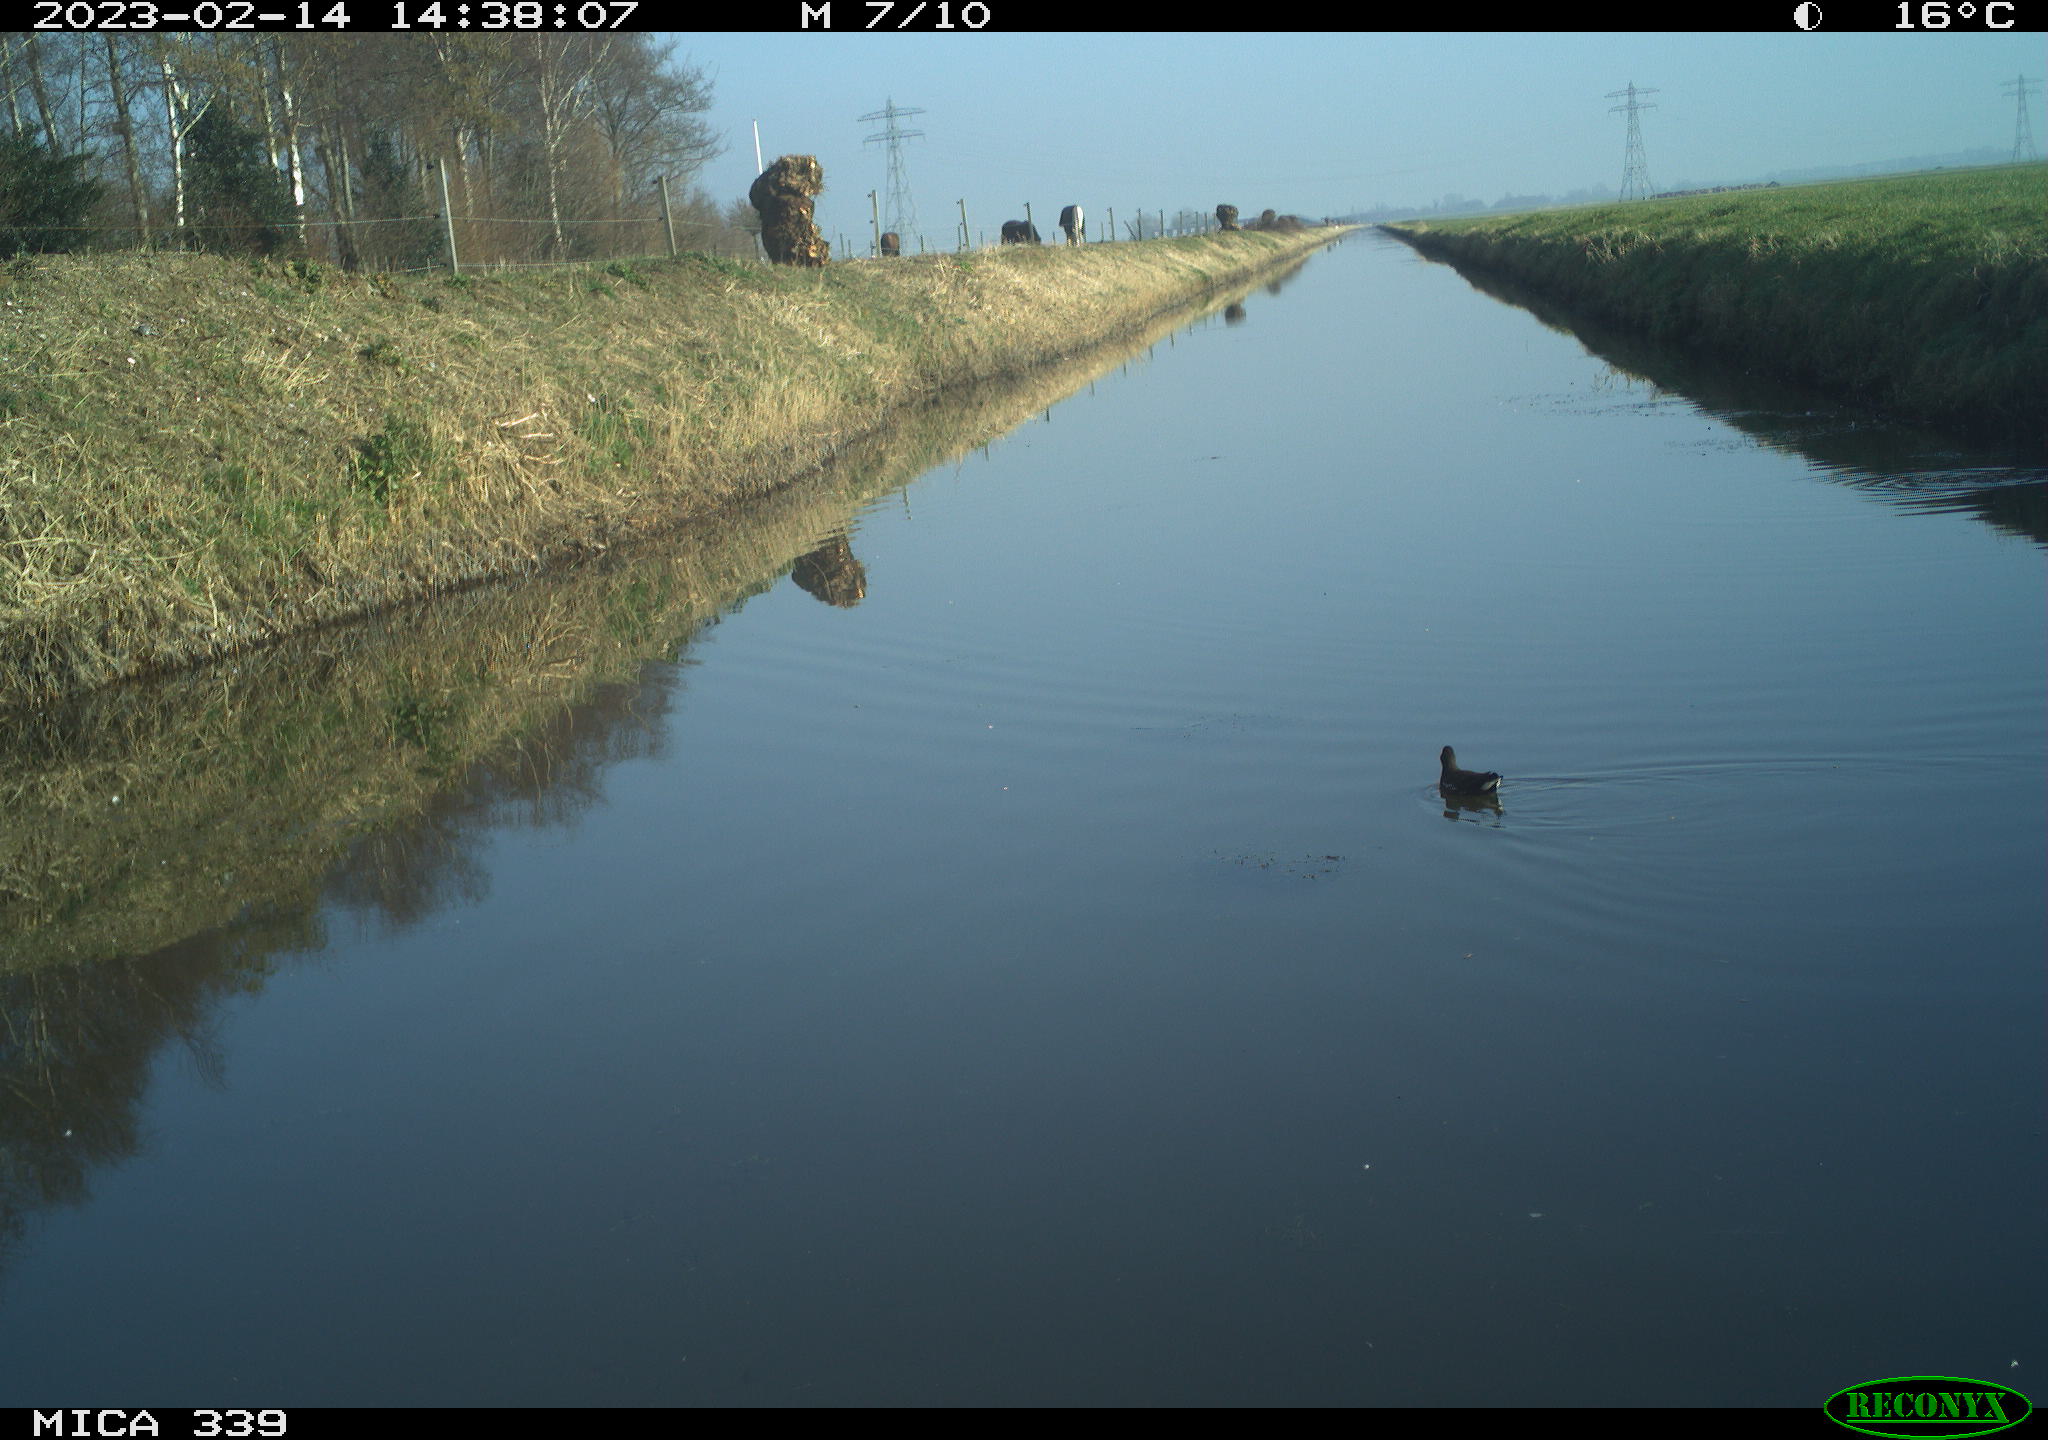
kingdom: Animalia
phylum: Chordata
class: Aves
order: Gruiformes
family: Rallidae
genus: Gallinula
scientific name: Gallinula chloropus
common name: Common moorhen
